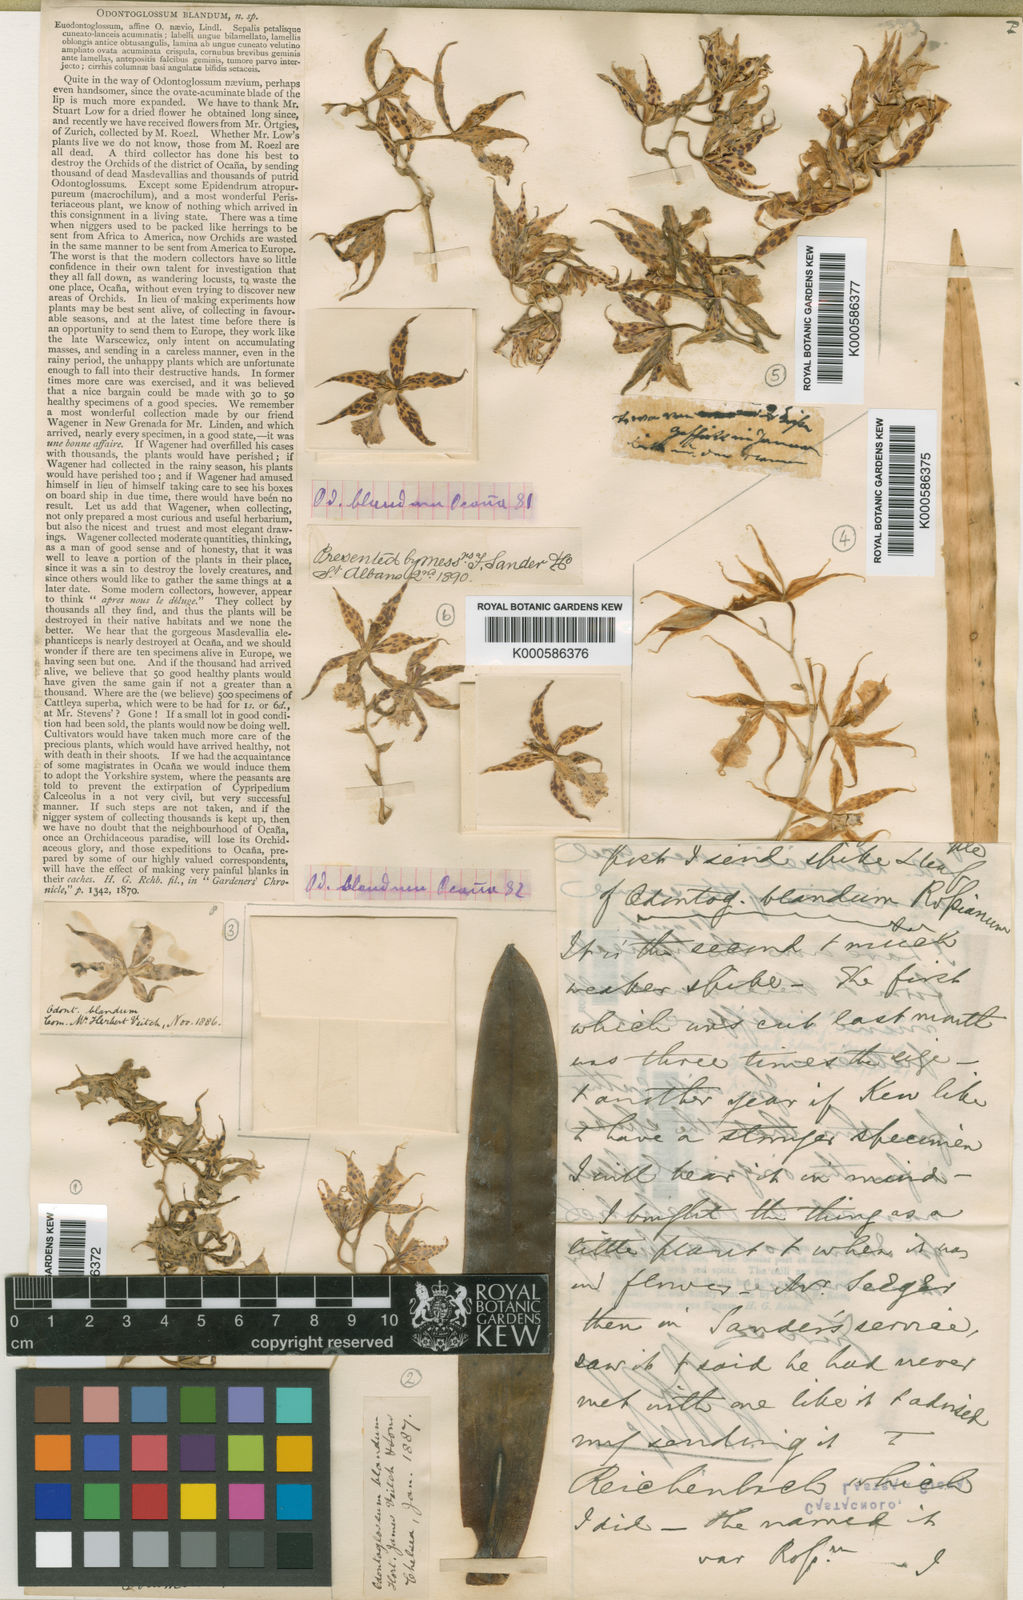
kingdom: Plantae
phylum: Tracheophyta
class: Liliopsida
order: Asparagales
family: Orchidaceae
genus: Oncidium
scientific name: Oncidium blandum
